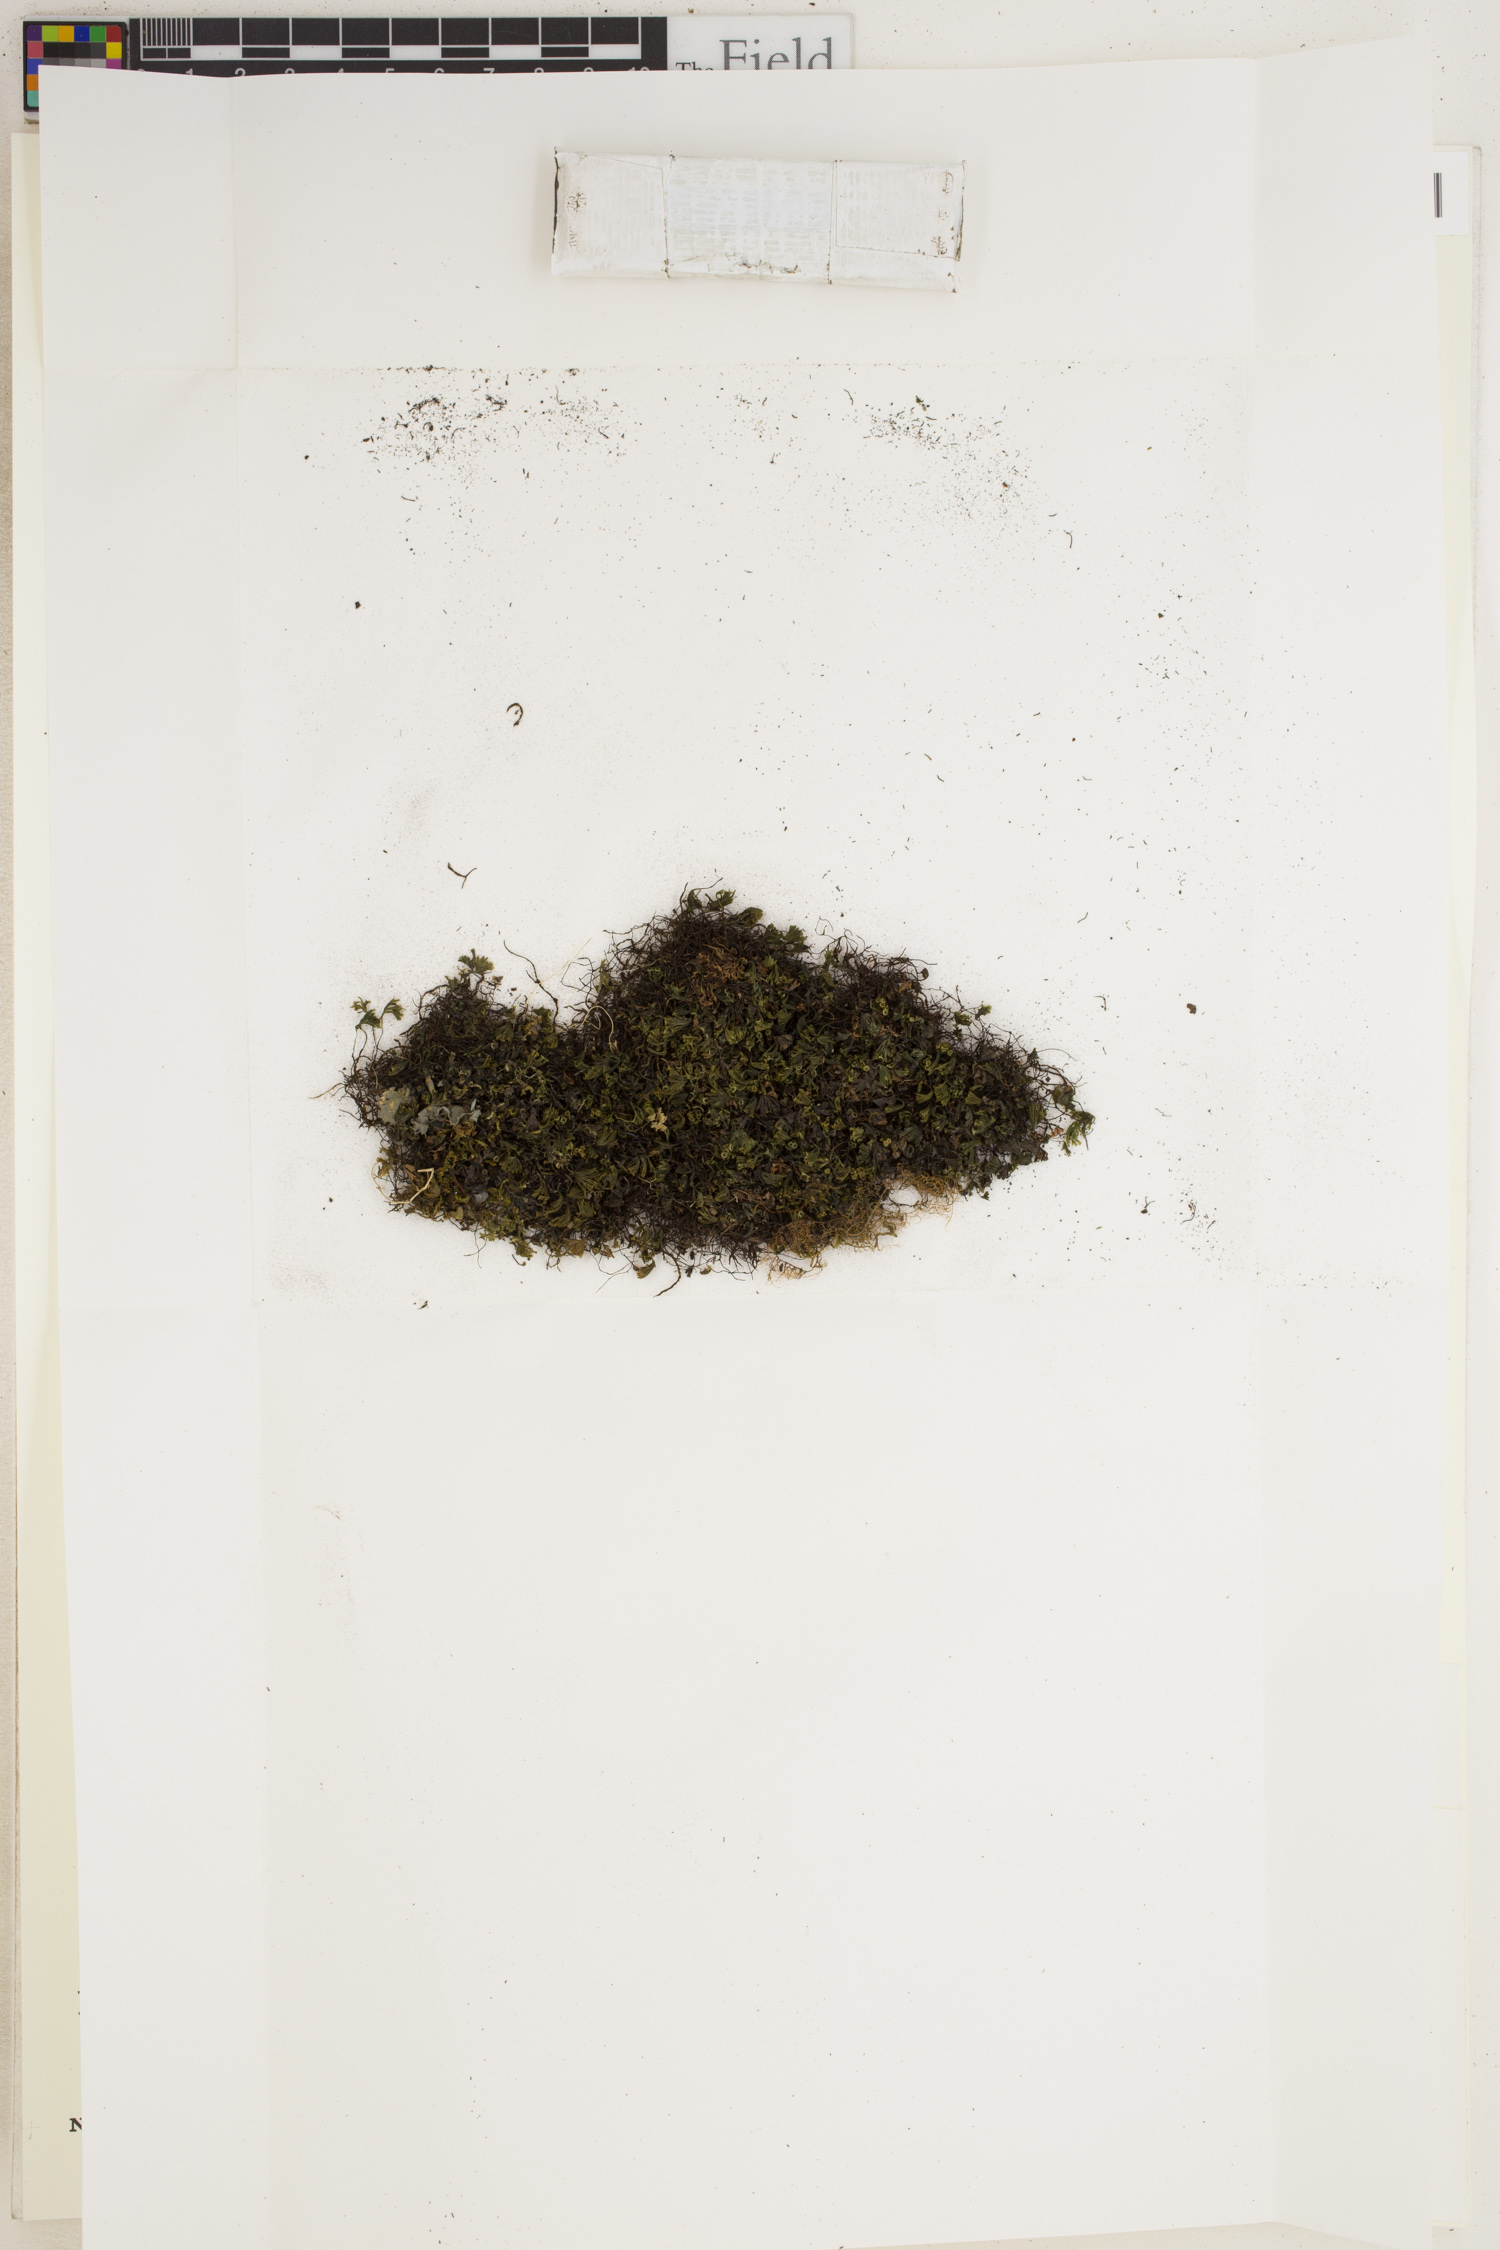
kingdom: Plantae
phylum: Tracheophyta
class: Polypodiopsida
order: Hymenophyllales
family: Hymenophyllaceae
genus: Trichomanes
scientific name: Trichomanes
